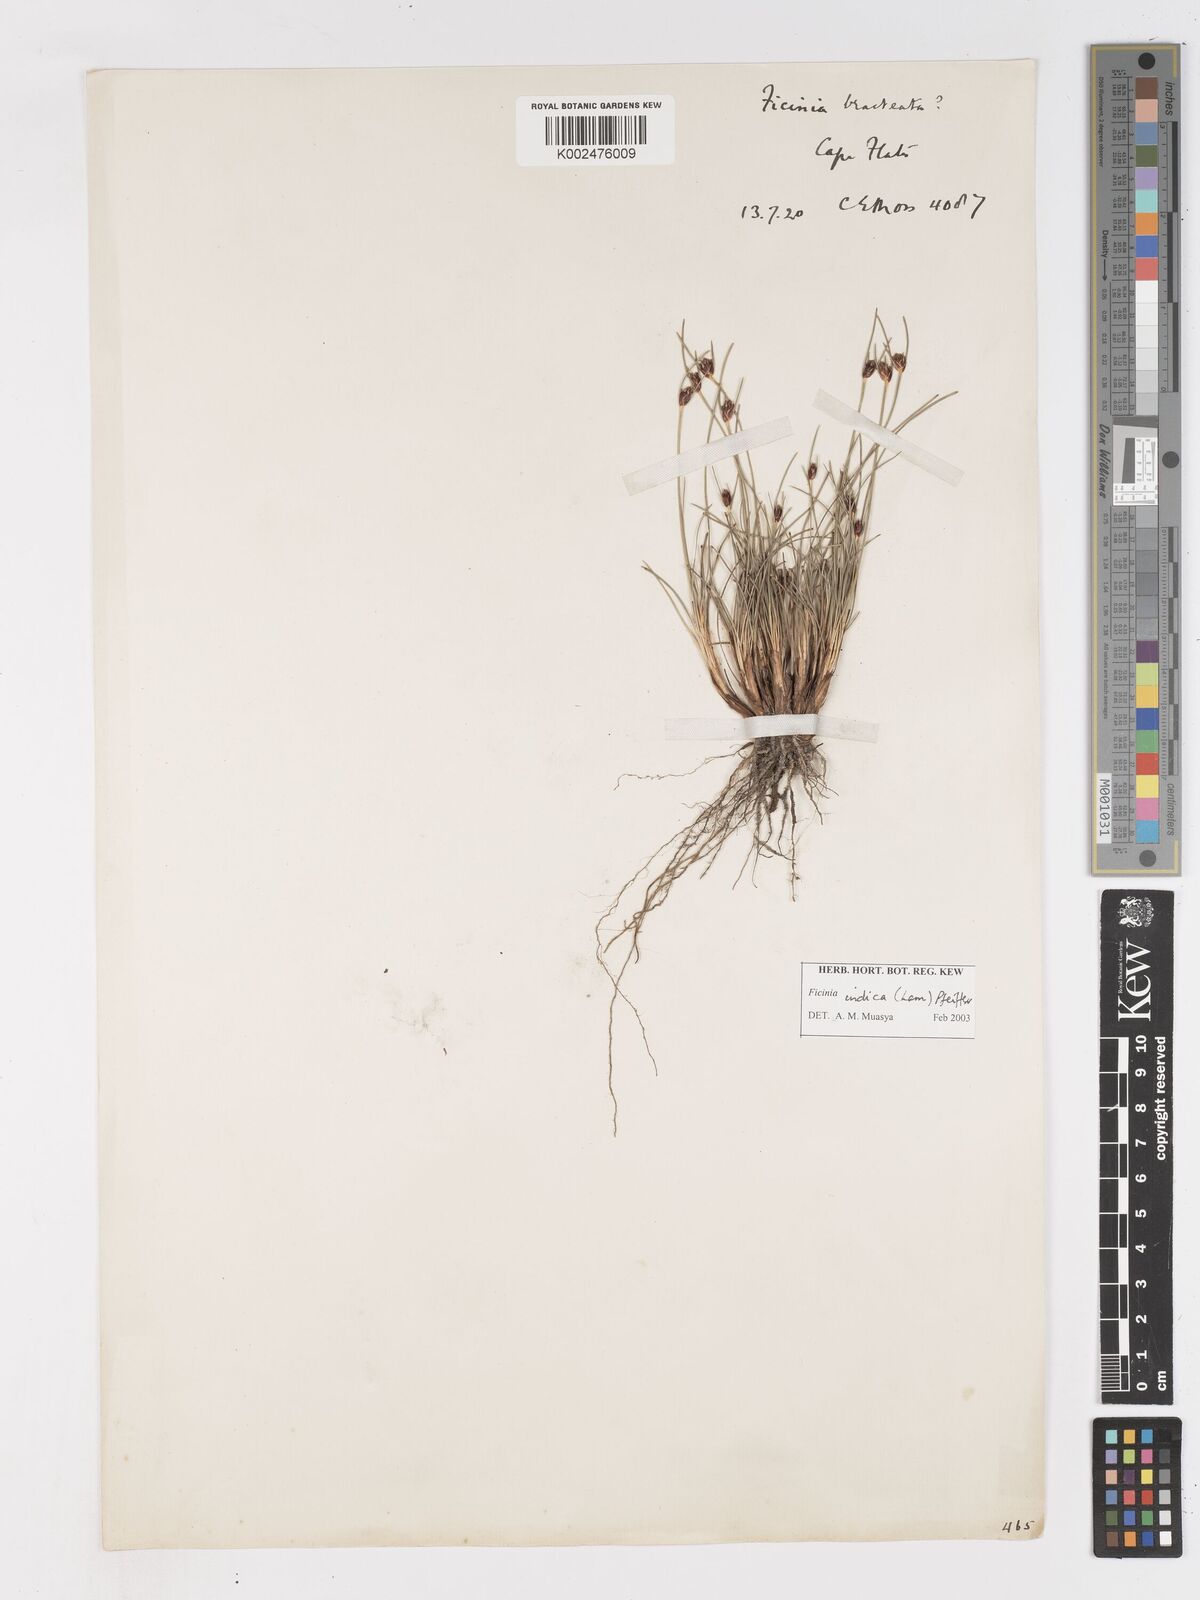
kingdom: Plantae
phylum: Tracheophyta
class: Liliopsida
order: Poales
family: Cyperaceae
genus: Ficinia
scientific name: Ficinia indica
